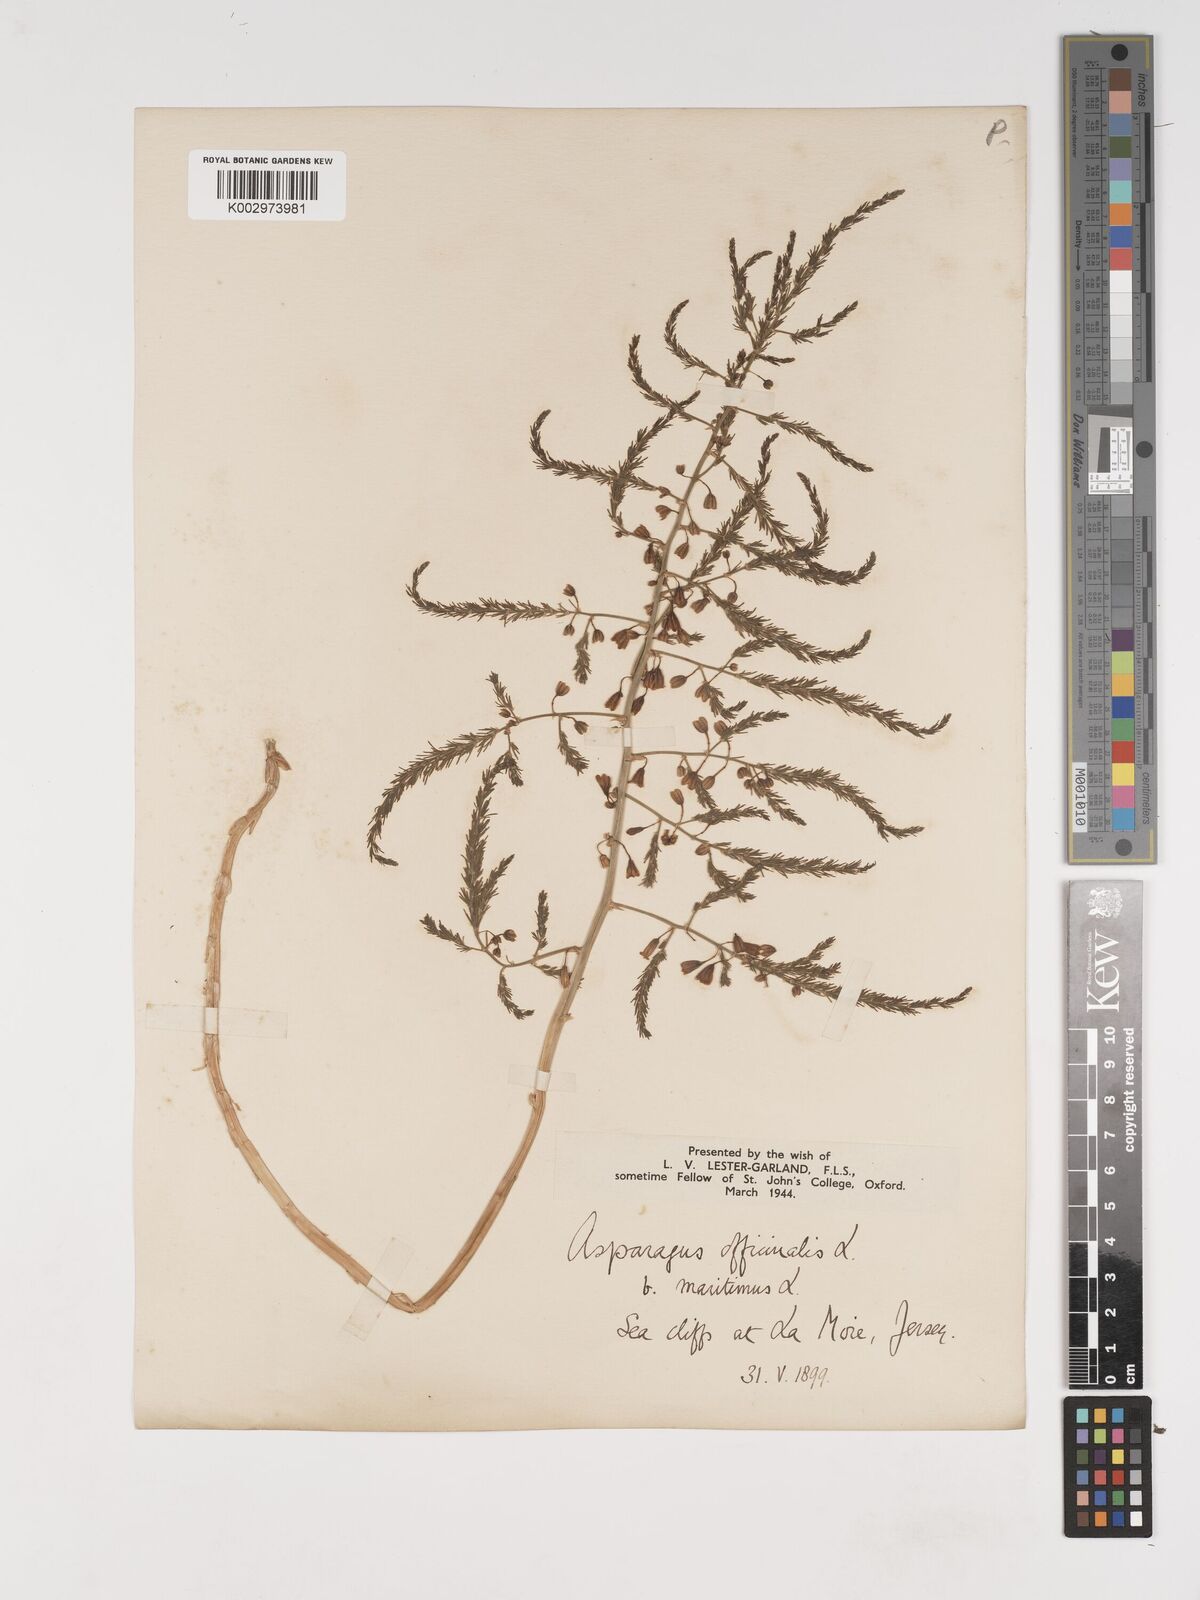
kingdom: Plantae
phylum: Tracheophyta
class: Liliopsida
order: Asparagales
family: Asparagaceae
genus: Asparagus
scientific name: Asparagus maritimus
